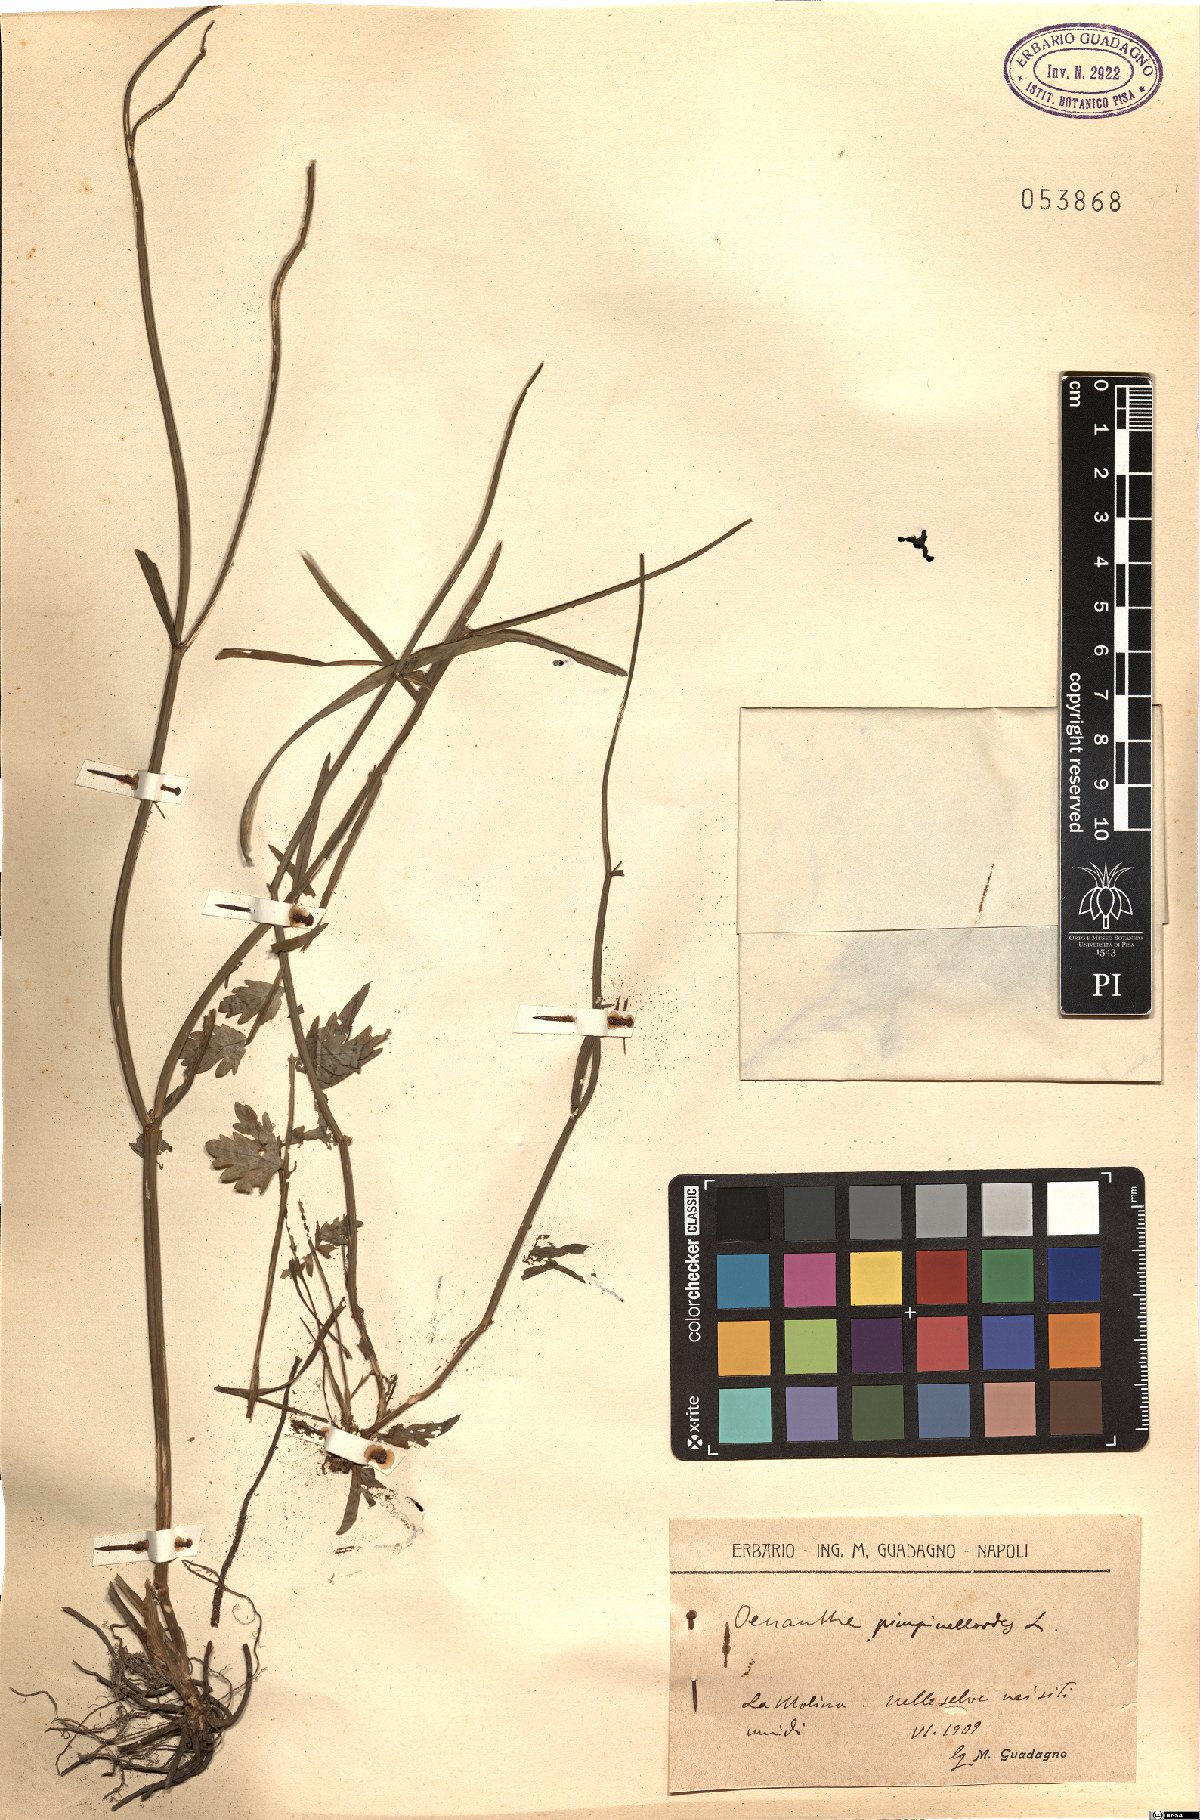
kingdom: Plantae
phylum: Tracheophyta
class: Magnoliopsida
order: Apiales
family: Apiaceae
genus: Oenanthe
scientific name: Oenanthe pimpinelloides
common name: Corky-fruited water-dropwort
